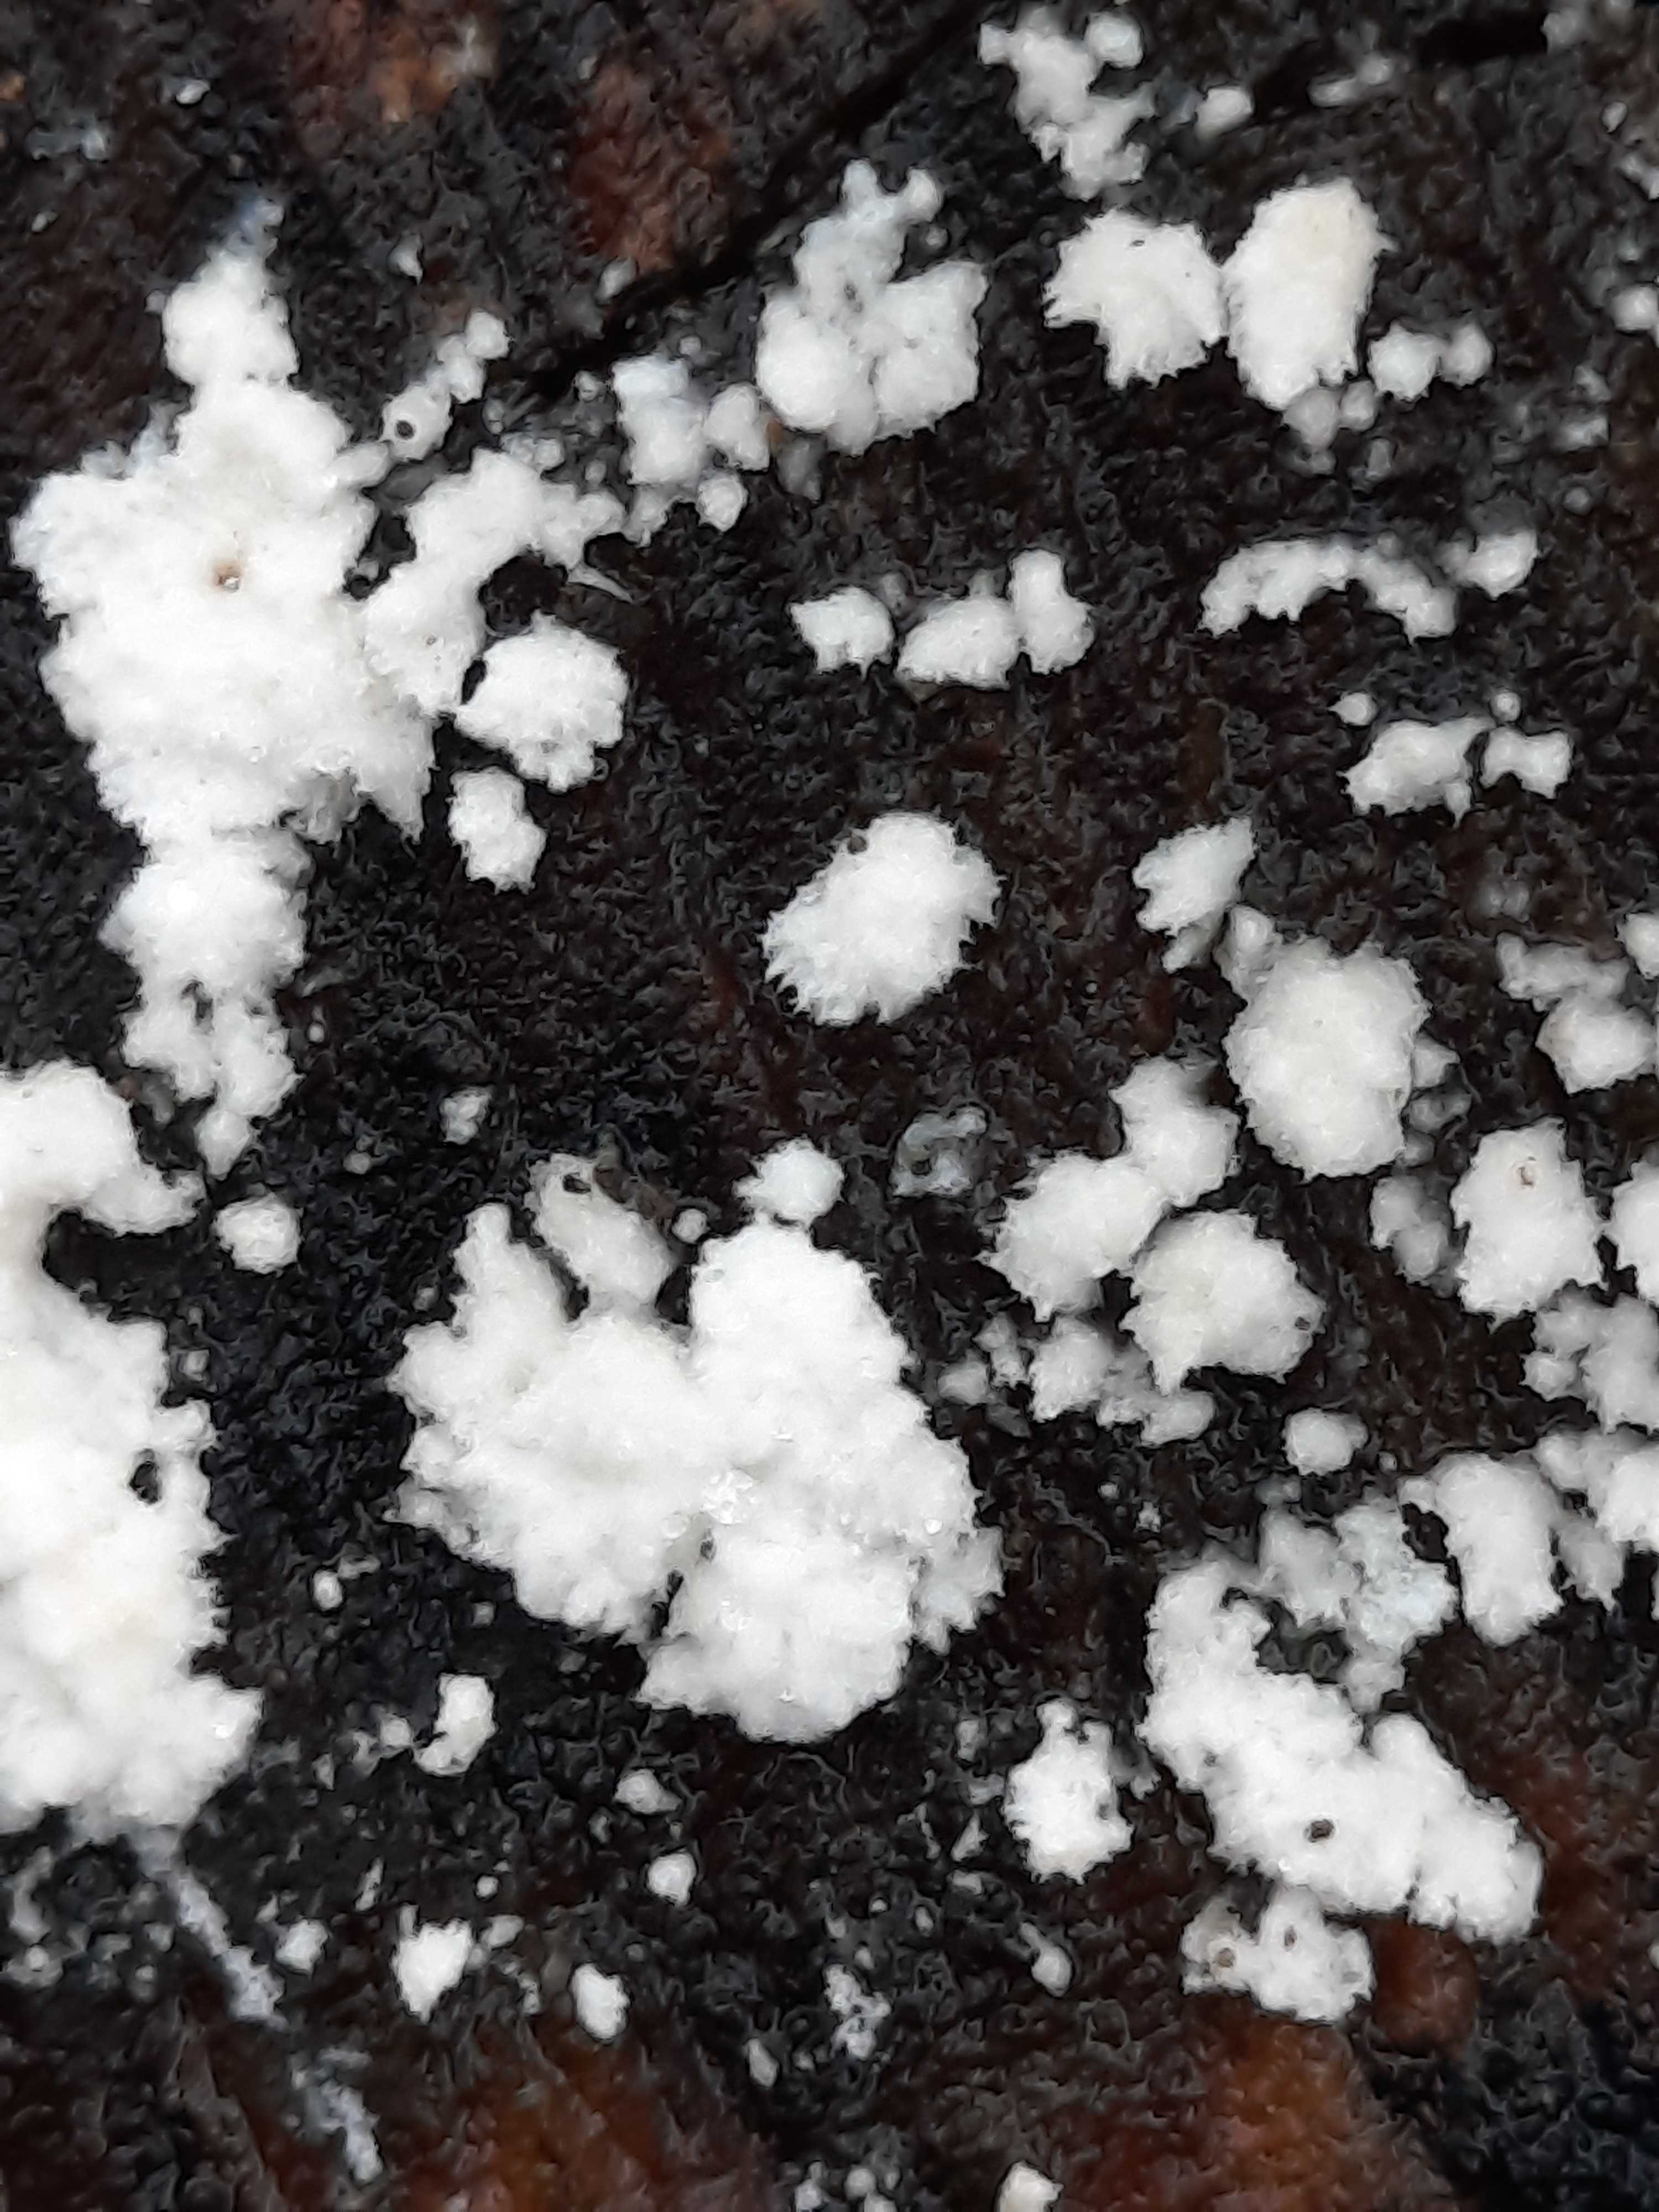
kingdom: Fungi
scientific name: Fungi
